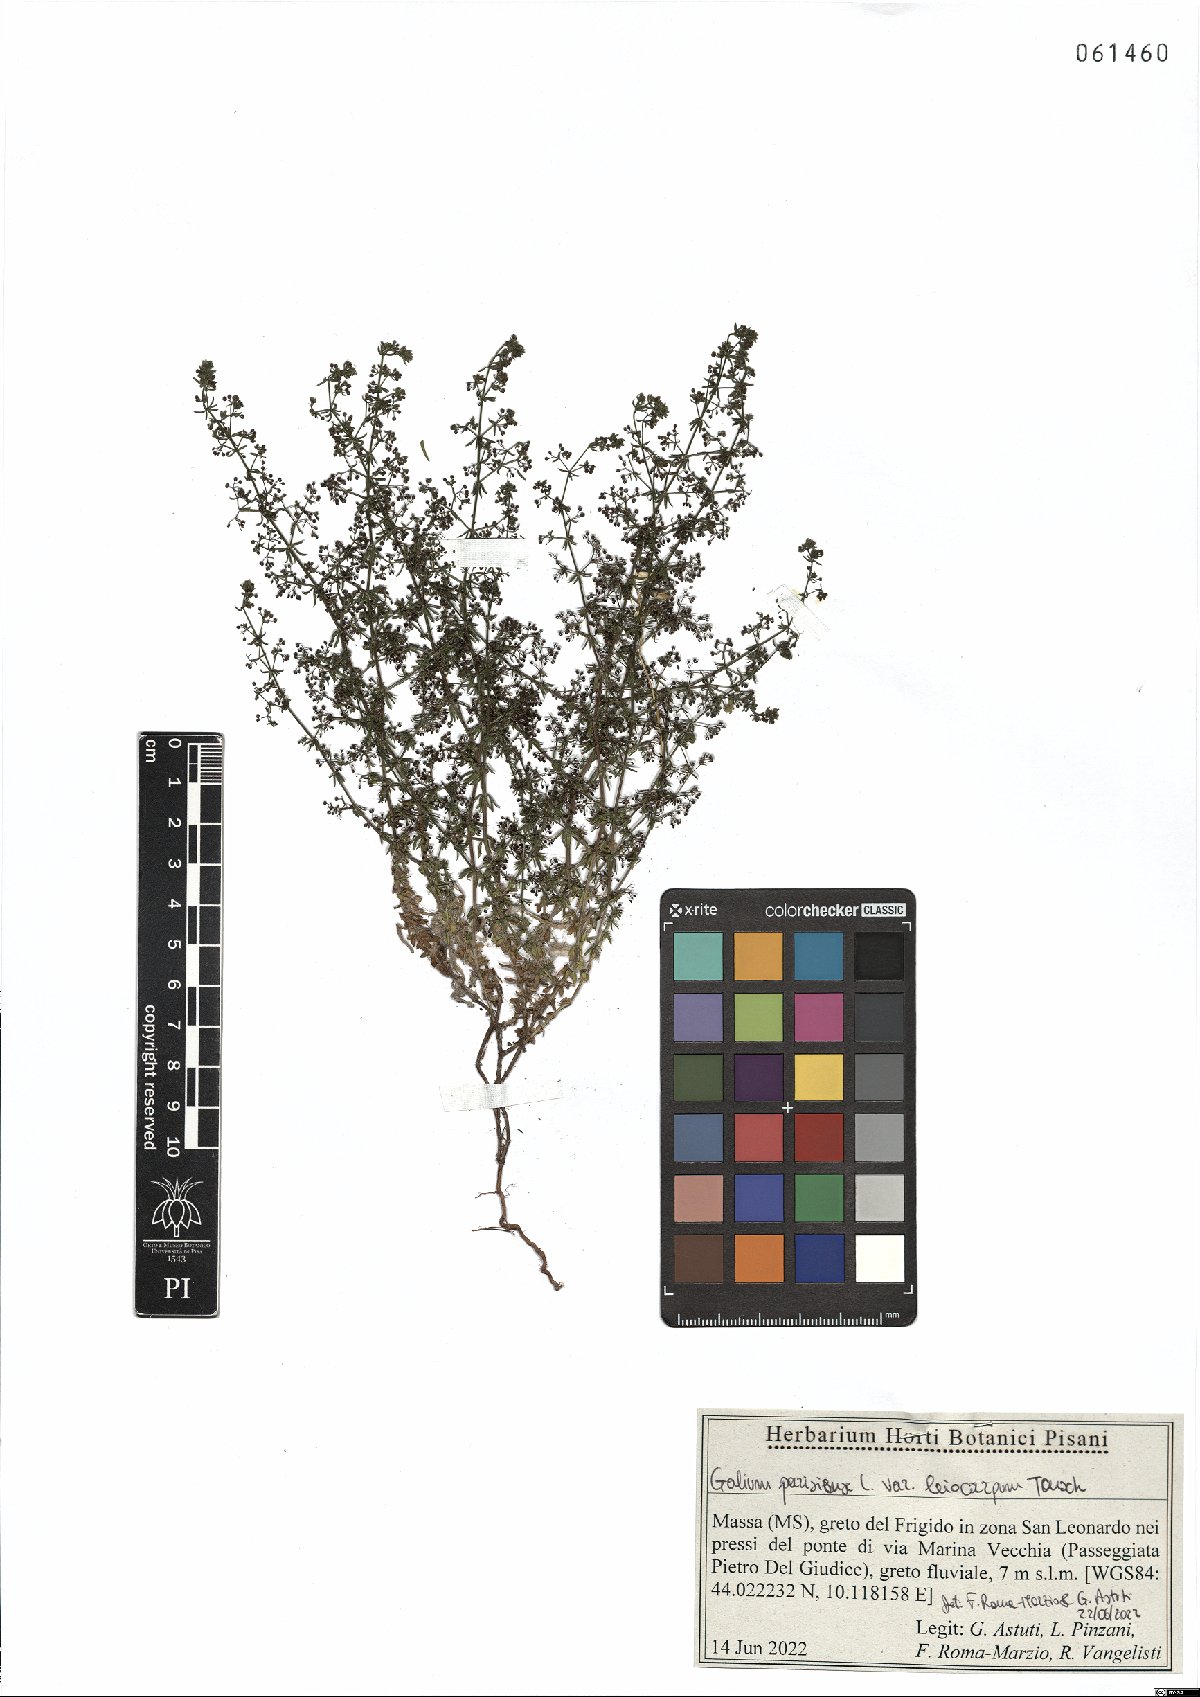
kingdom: Plantae
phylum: Tracheophyta
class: Magnoliopsida
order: Gentianales
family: Rubiaceae
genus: Galium
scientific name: Galium anglicum
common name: English bedstraw
